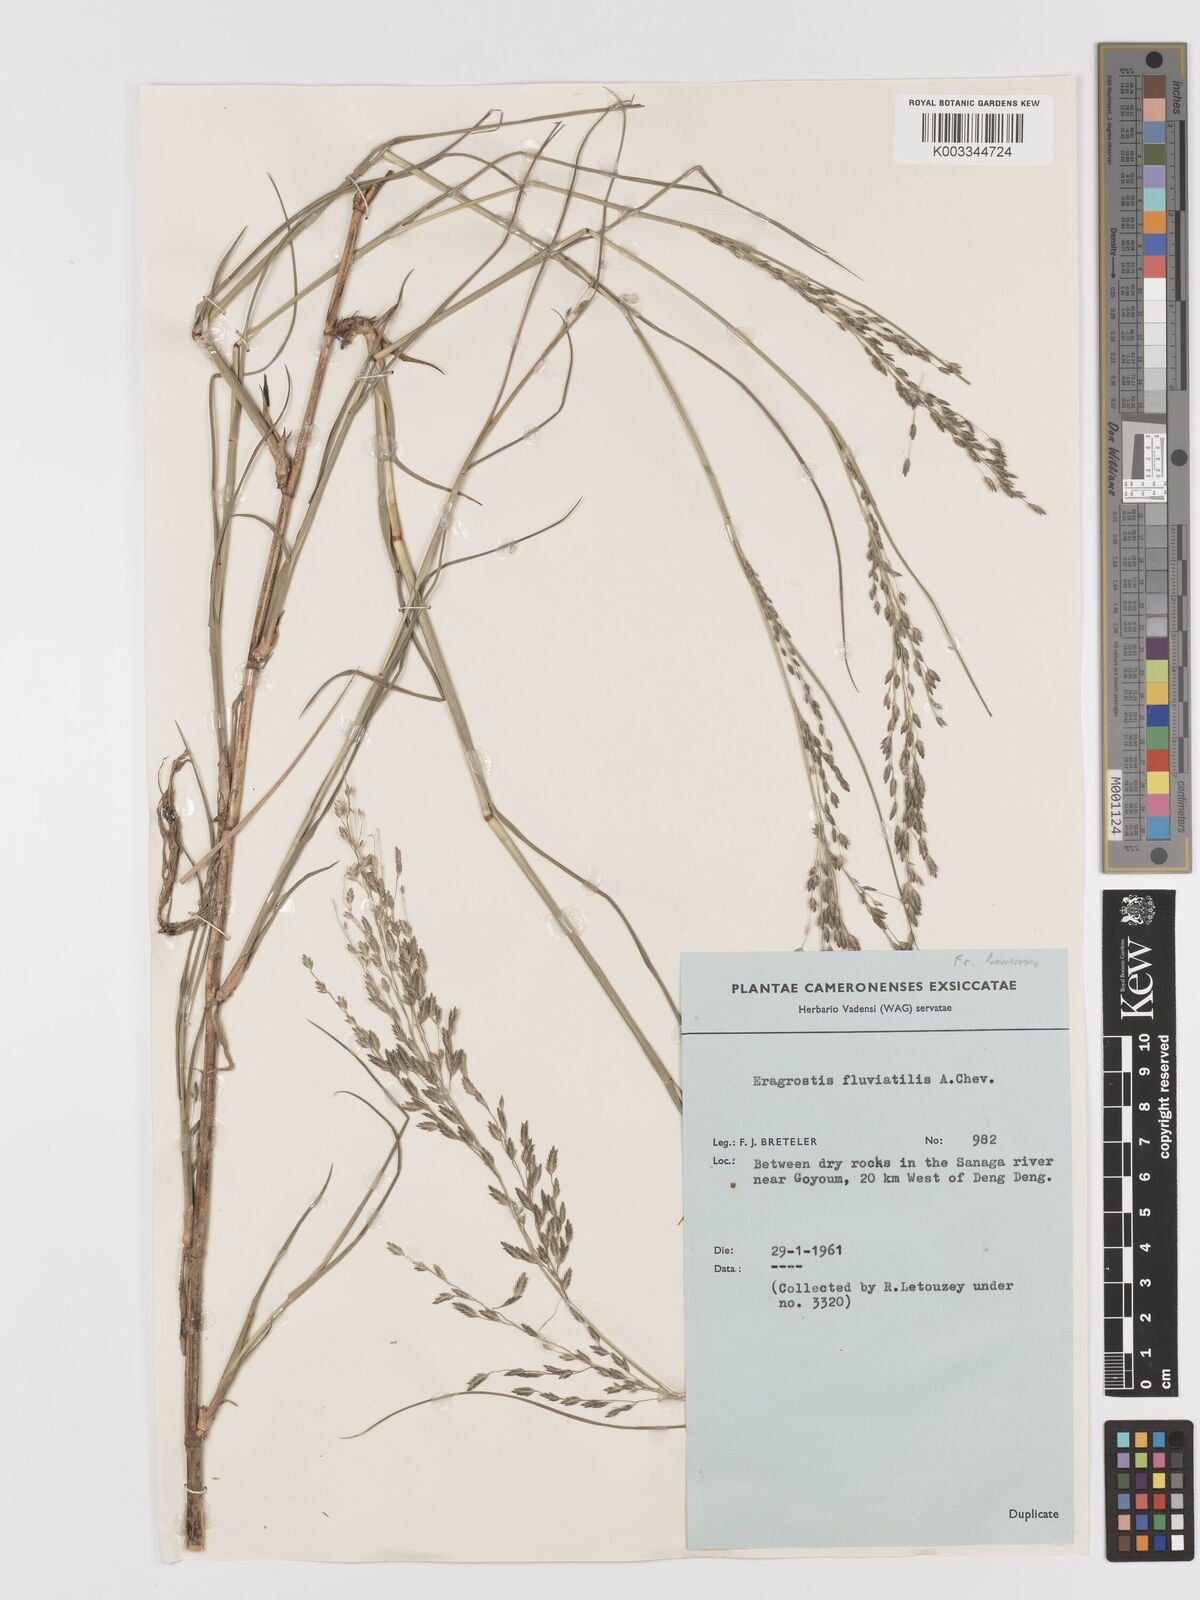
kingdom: Plantae
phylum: Tracheophyta
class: Liliopsida
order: Poales
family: Poaceae
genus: Eragrostis
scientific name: Eragrostis barteri
